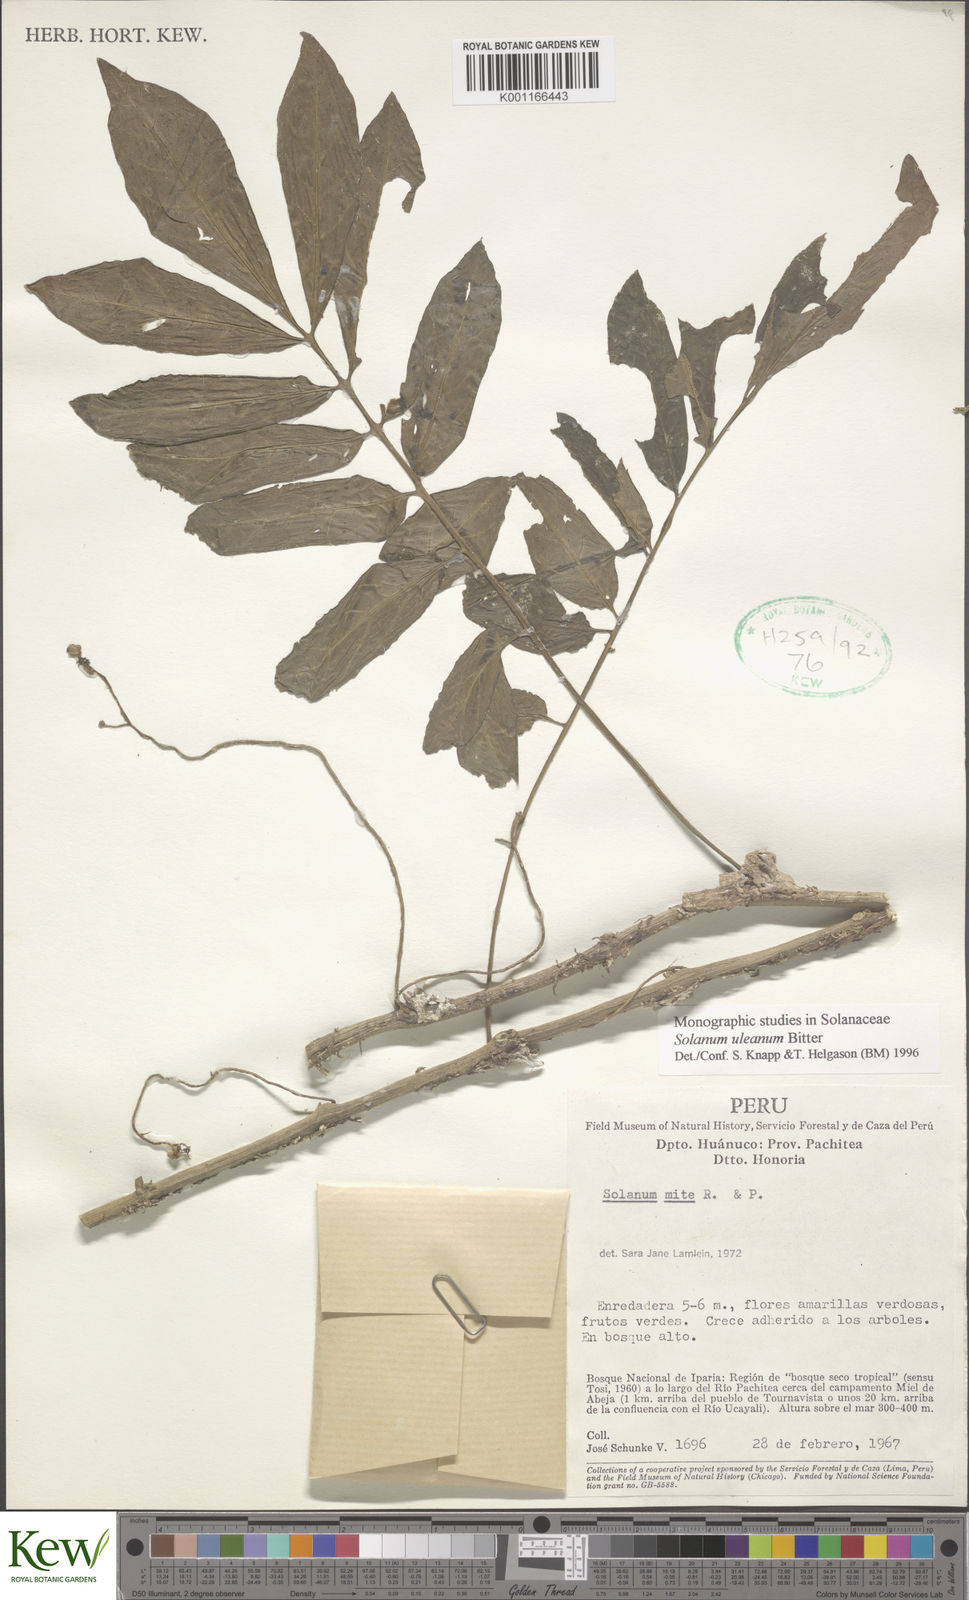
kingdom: Plantae
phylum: Tracheophyta
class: Magnoliopsida
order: Solanales
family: Solanaceae
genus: Solanum
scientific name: Solanum uleanum
